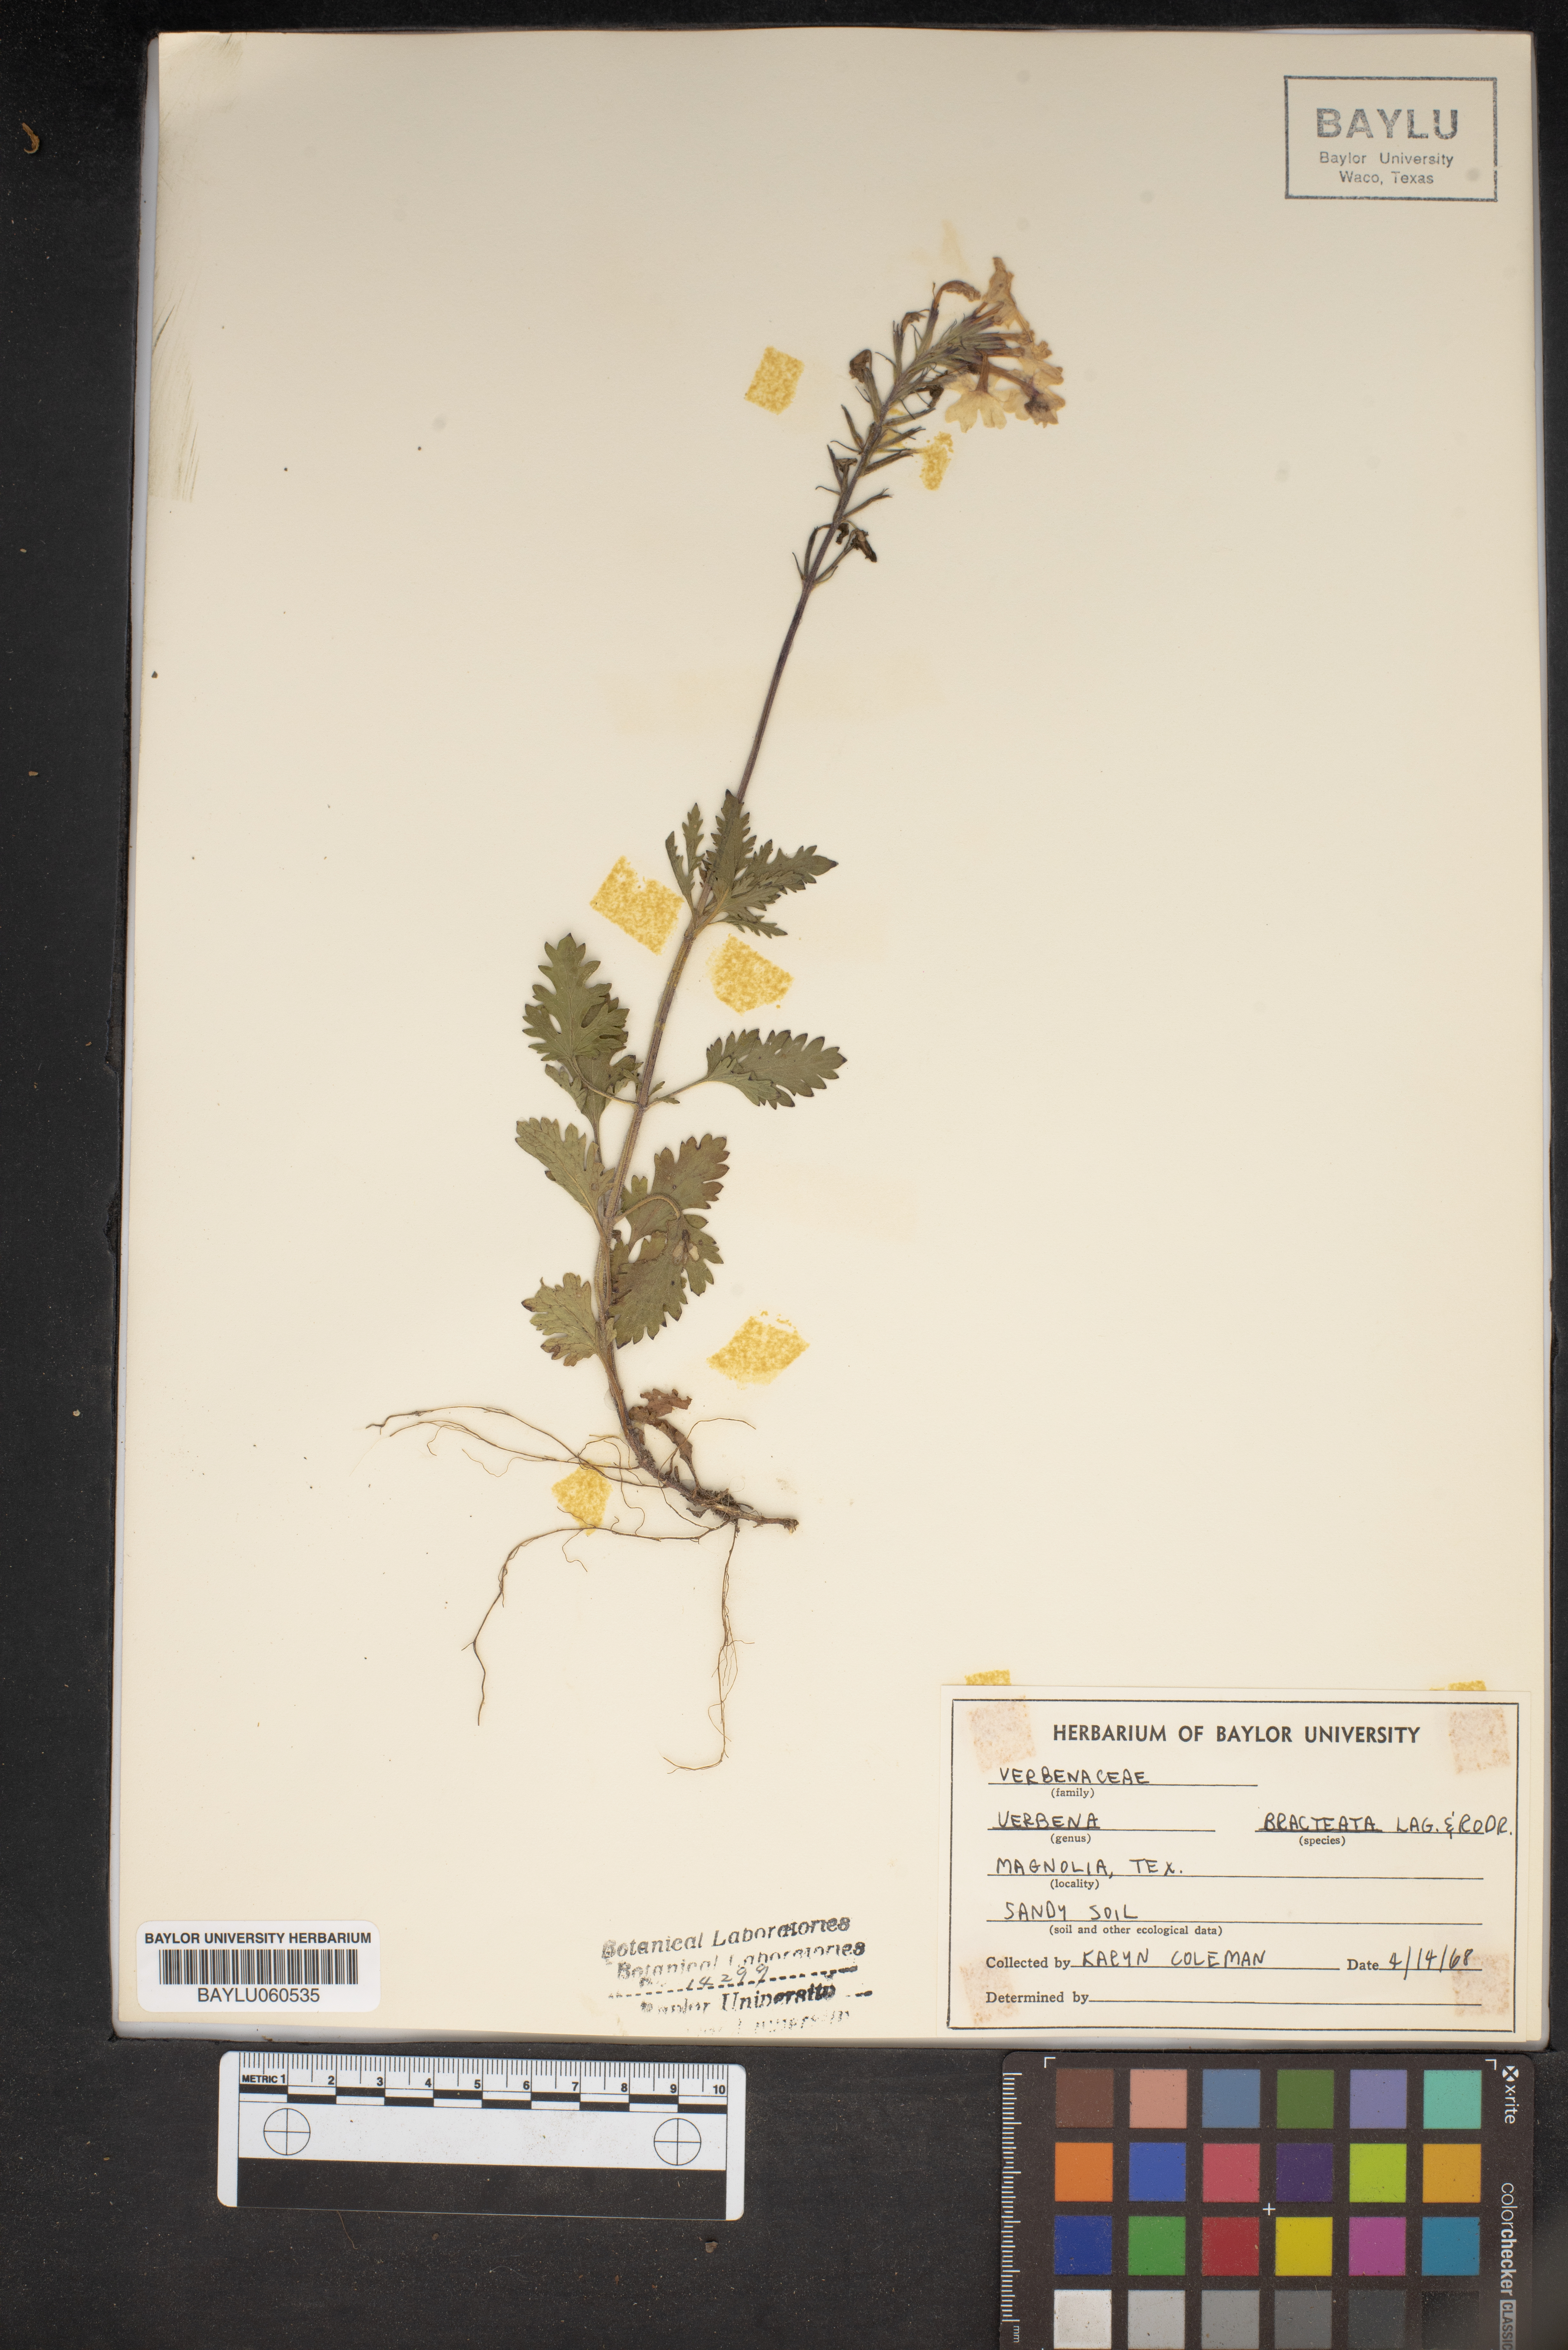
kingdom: Plantae
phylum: Tracheophyta
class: Magnoliopsida
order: Lamiales
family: Verbenaceae
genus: Verbena
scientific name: Verbena bracteata
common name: Bracted vervain
